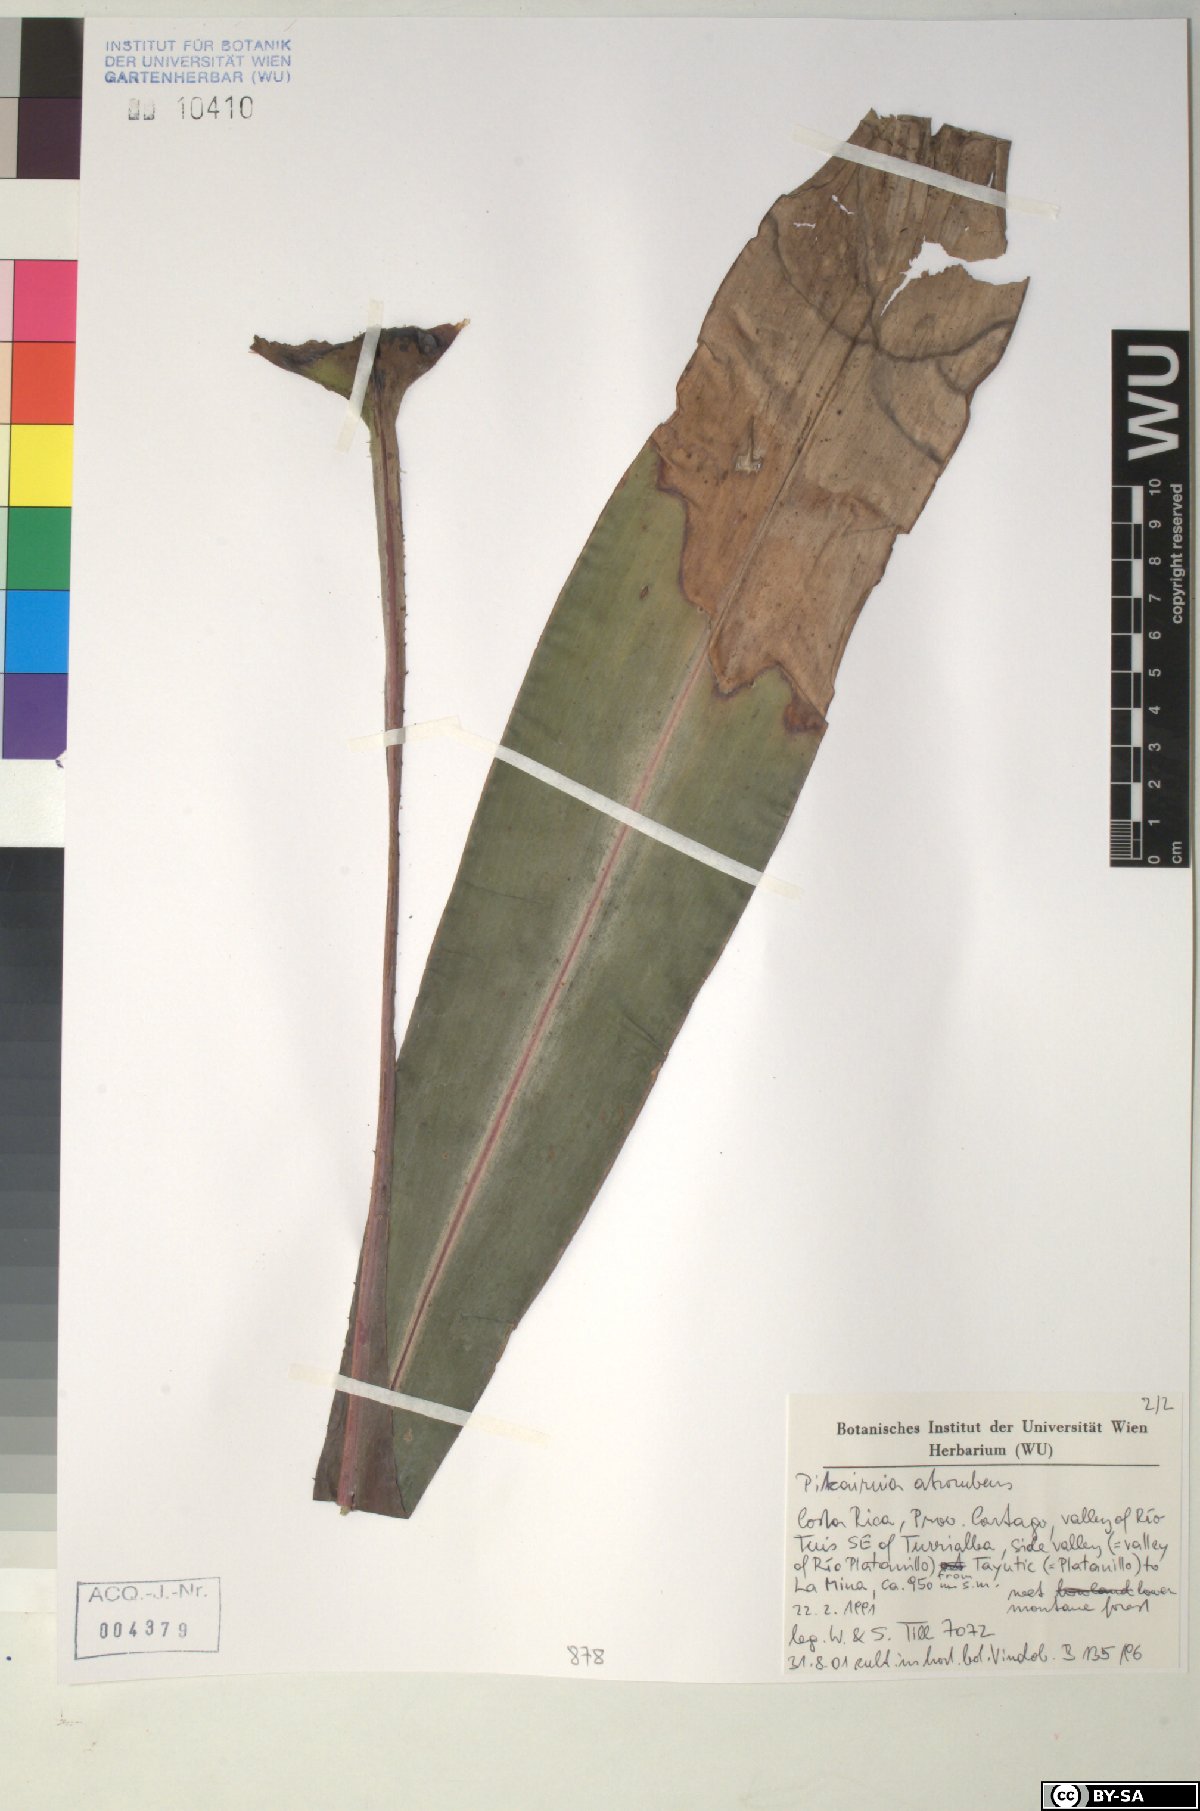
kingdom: Plantae
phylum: Tracheophyta
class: Liliopsida
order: Poales
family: Bromeliaceae
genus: Pitcairnia
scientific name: Pitcairnia atrorubens
